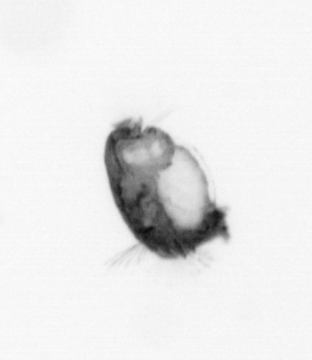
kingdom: Animalia
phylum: Annelida
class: Polychaeta
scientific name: Polychaeta
